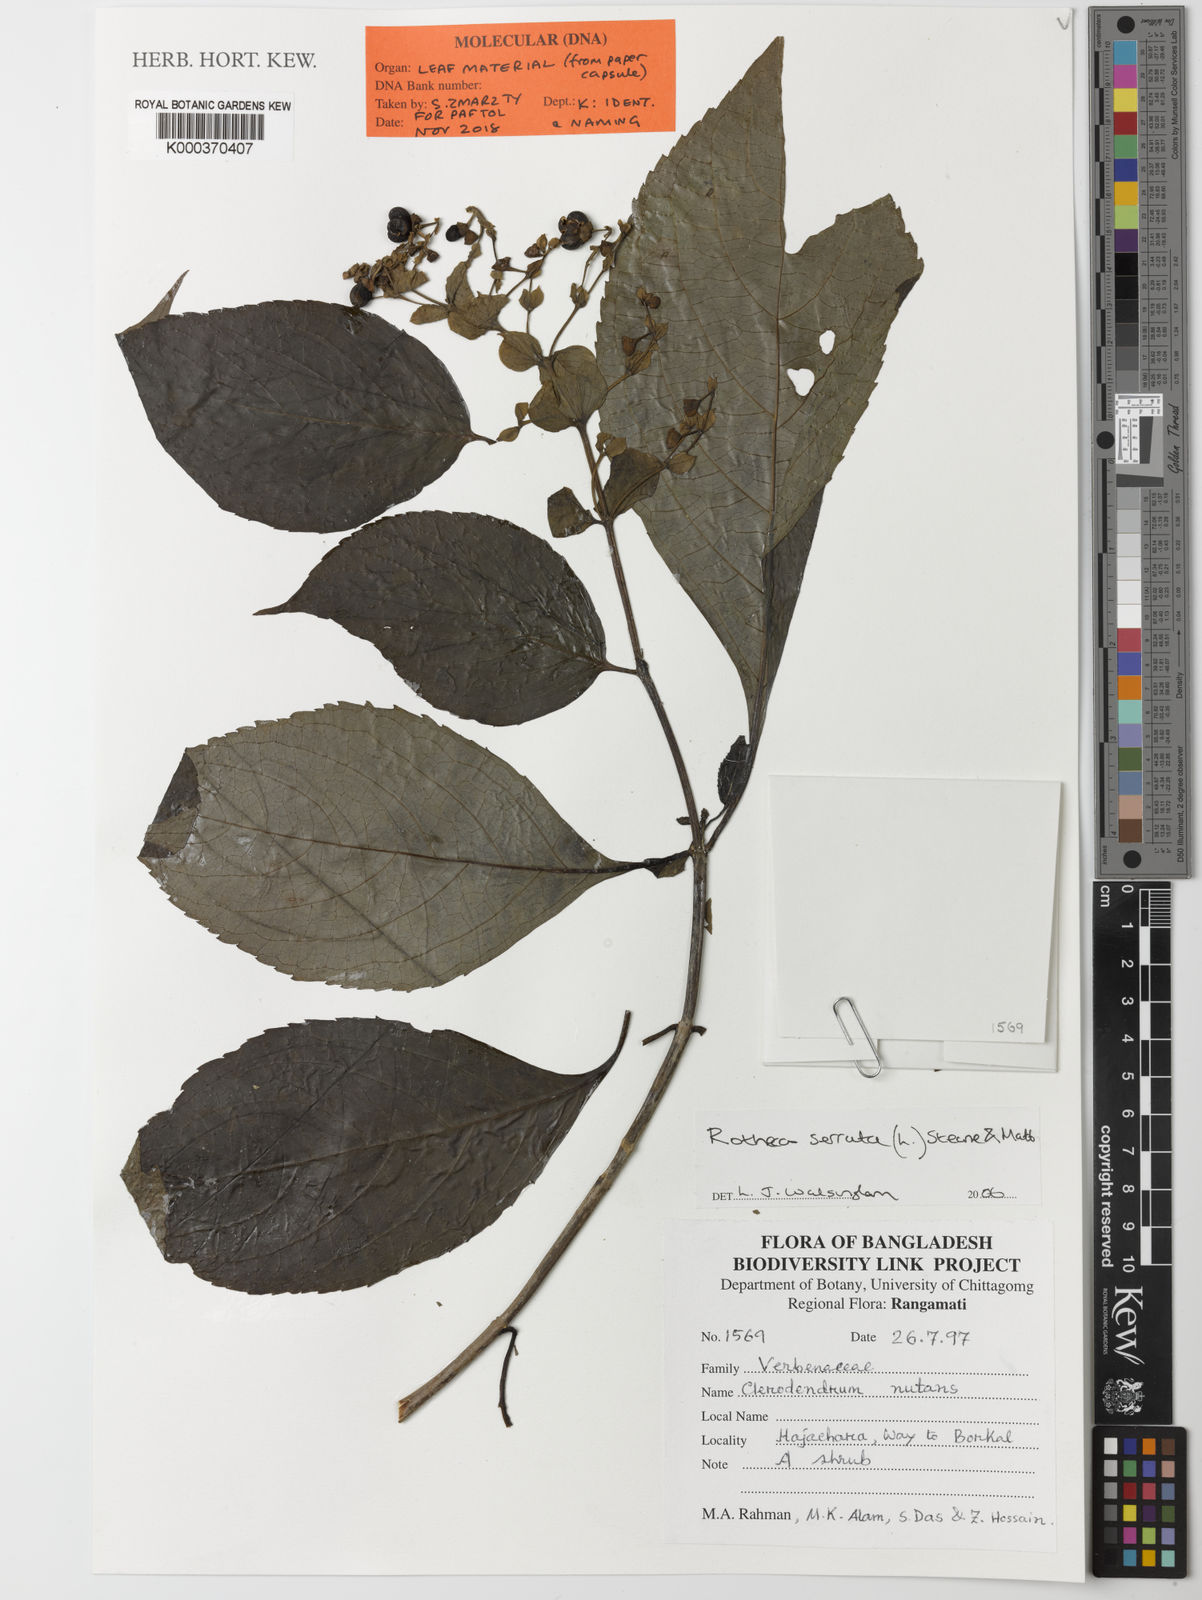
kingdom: Plantae
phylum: Tracheophyta
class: Magnoliopsida
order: Lamiales
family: Lamiaceae
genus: Rotheca
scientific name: Rotheca serrata
